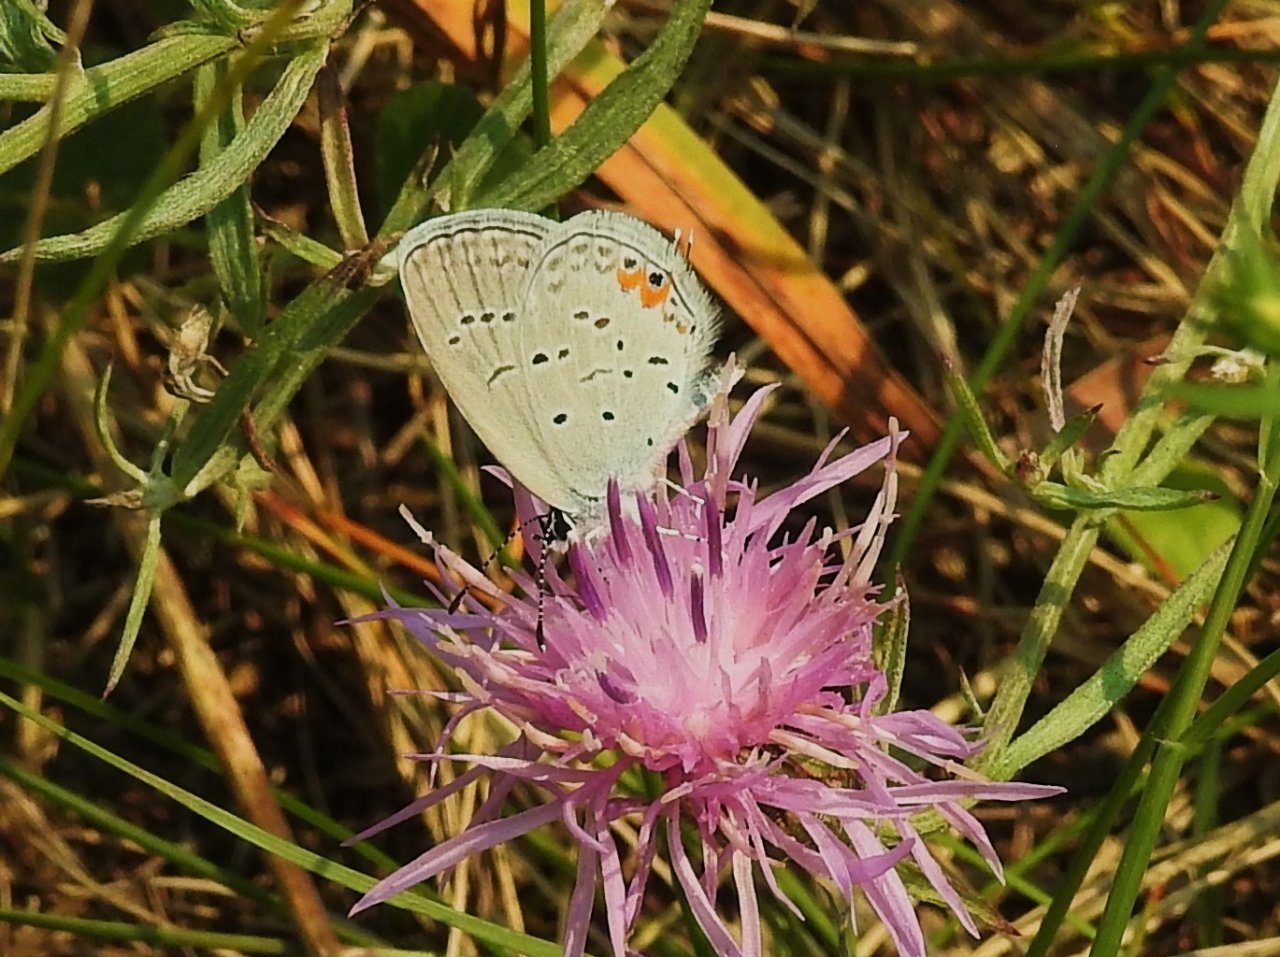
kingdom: Animalia
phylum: Arthropoda
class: Insecta
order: Lepidoptera
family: Lycaenidae
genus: Elkalyce
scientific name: Elkalyce comyntas
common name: Eastern Tailed-Blue
